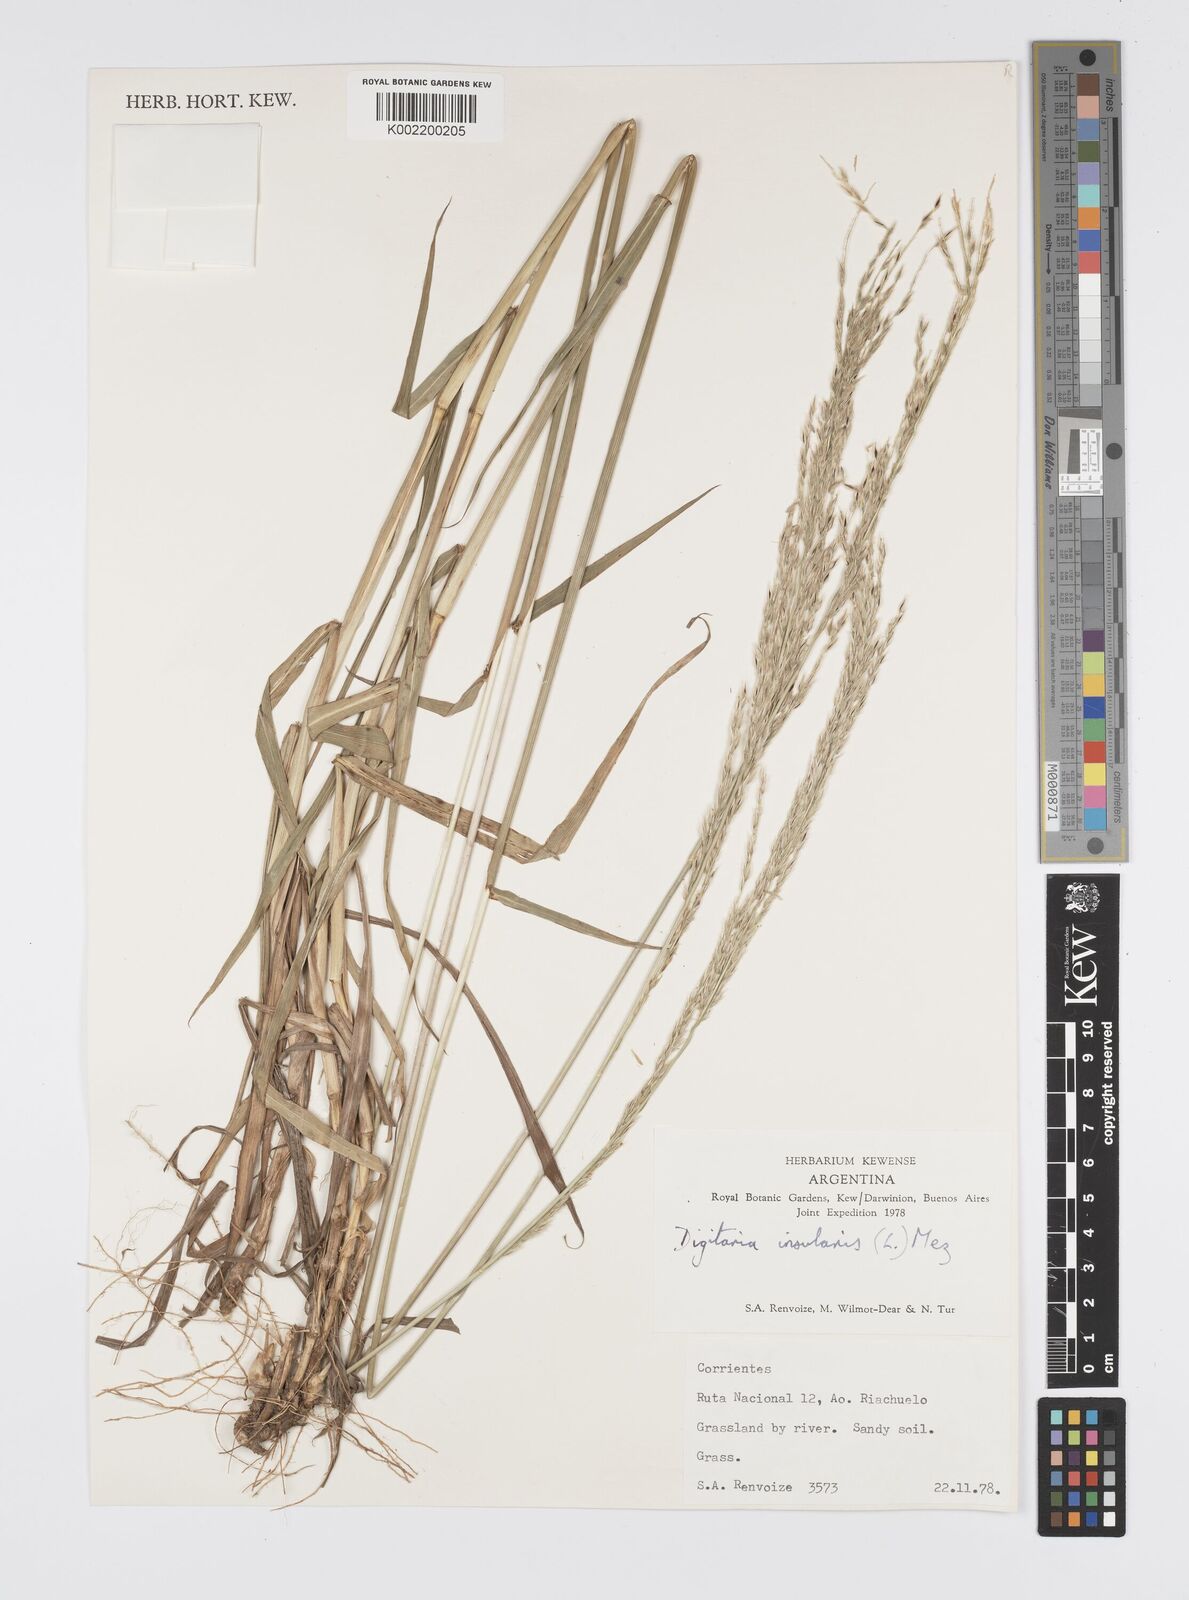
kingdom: Plantae
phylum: Tracheophyta
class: Liliopsida
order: Poales
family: Poaceae
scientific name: Poaceae
